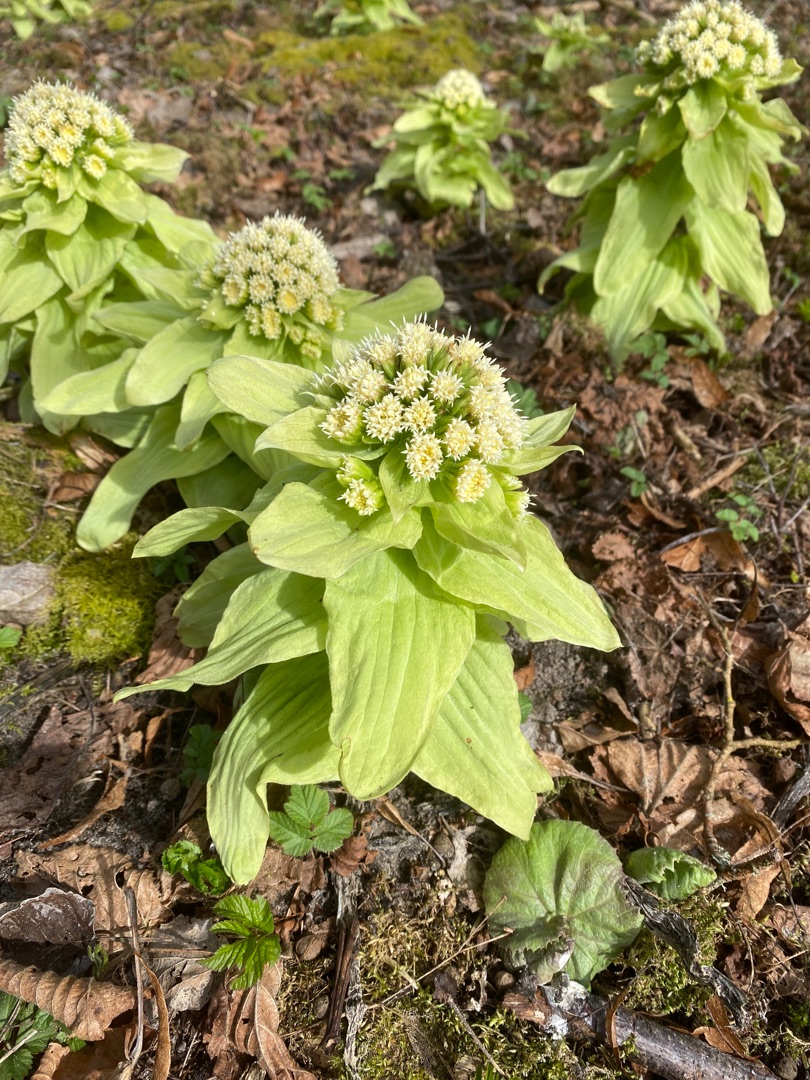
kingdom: Plantae
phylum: Tracheophyta
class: Magnoliopsida
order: Asterales
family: Asteraceae
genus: Petasites
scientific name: Petasites japonicus
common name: Japansk hestehov
